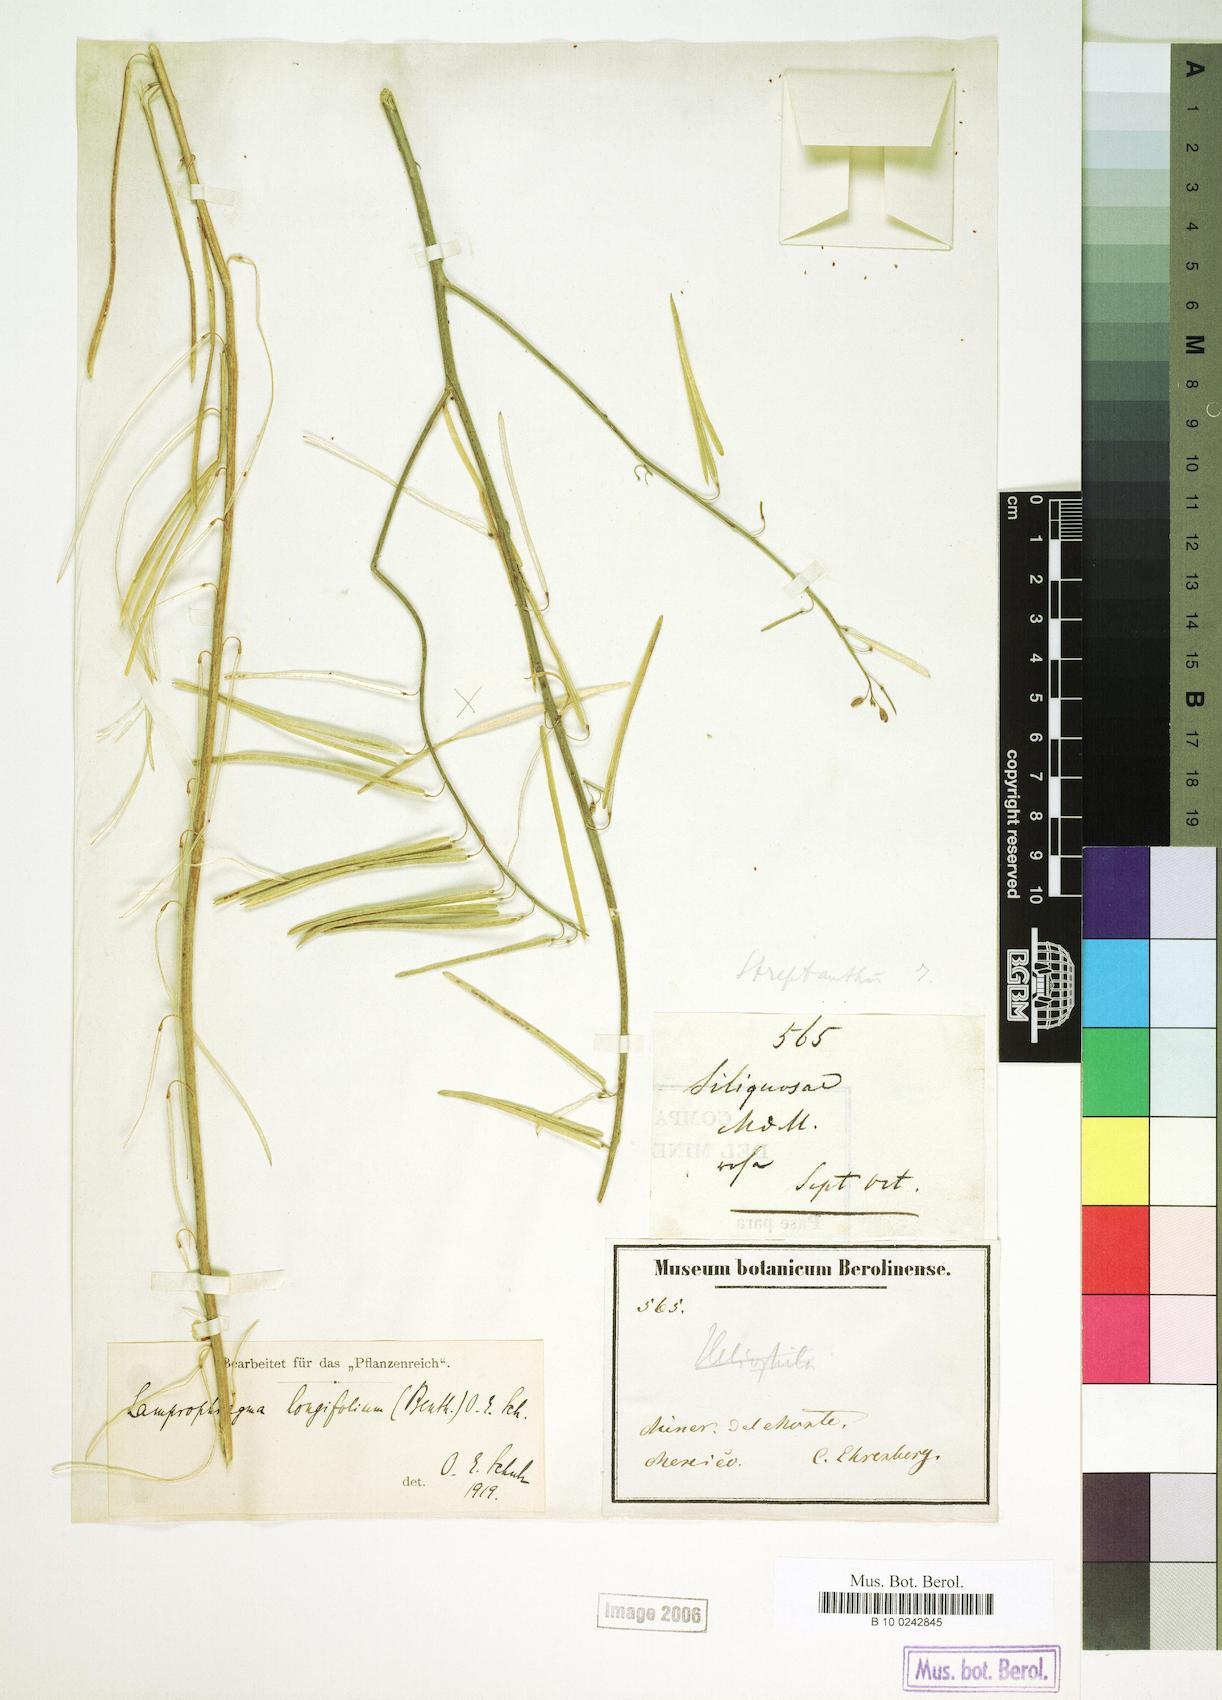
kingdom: Plantae
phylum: Tracheophyta
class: Magnoliopsida
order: Brassicales
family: Brassicaceae
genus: Pennellia
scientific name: Pennellia longifolia
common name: Longleaf mock thelypody
